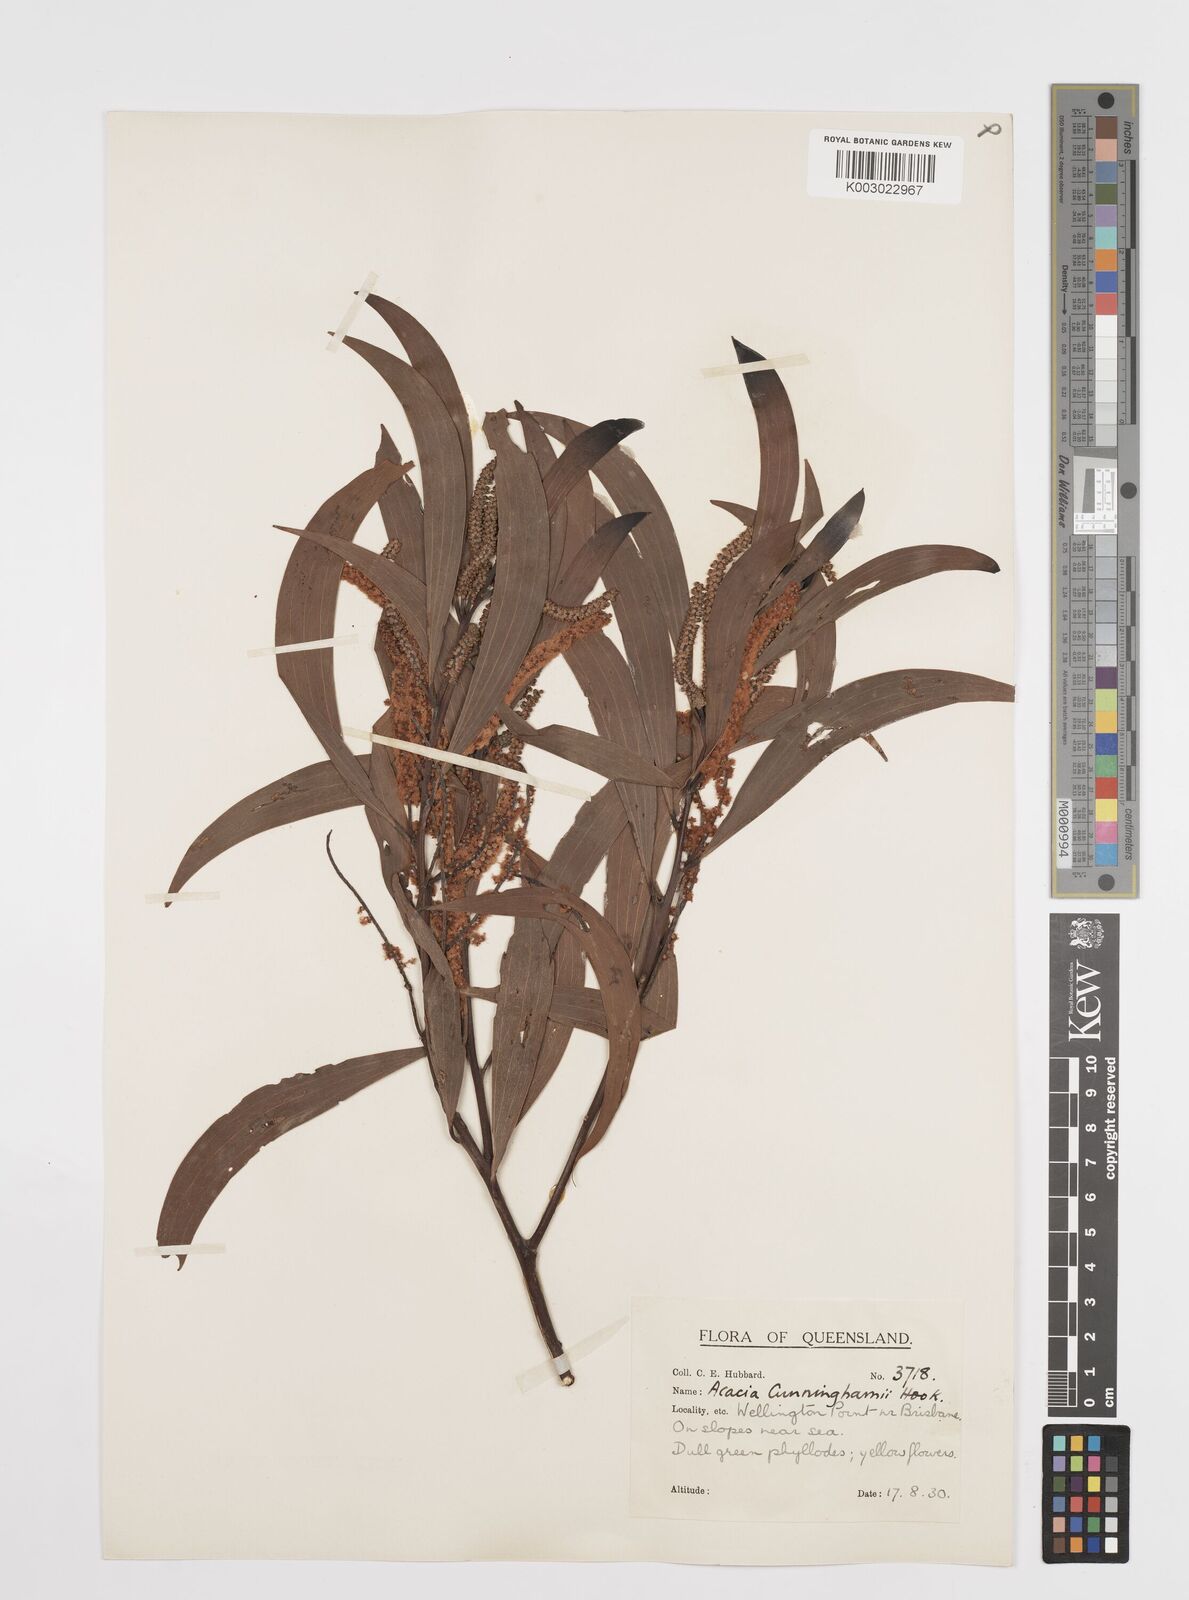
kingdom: Plantae
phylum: Tracheophyta
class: Magnoliopsida
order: Fabales
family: Fabaceae
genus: Acacia
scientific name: Acacia longispicata
